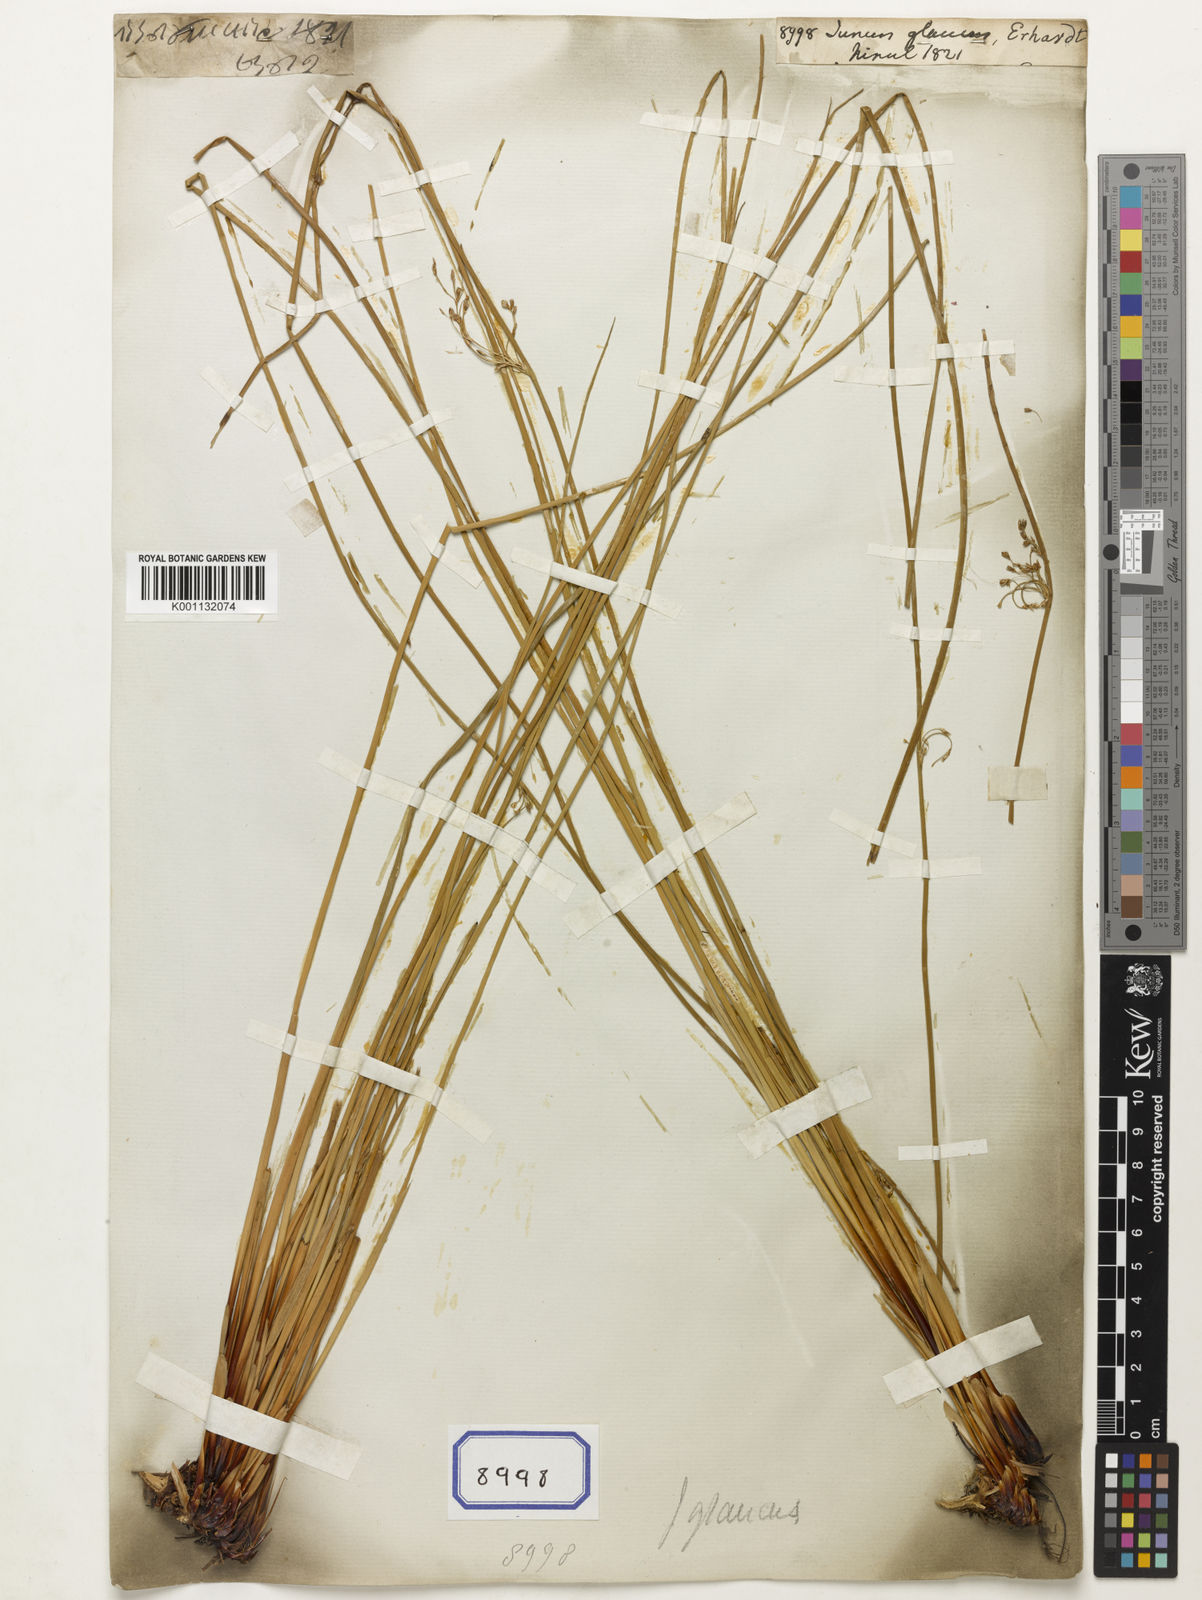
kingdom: Plantae
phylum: Tracheophyta
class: Liliopsida
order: Poales
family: Juncaceae
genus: Juncus
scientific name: Juncus
